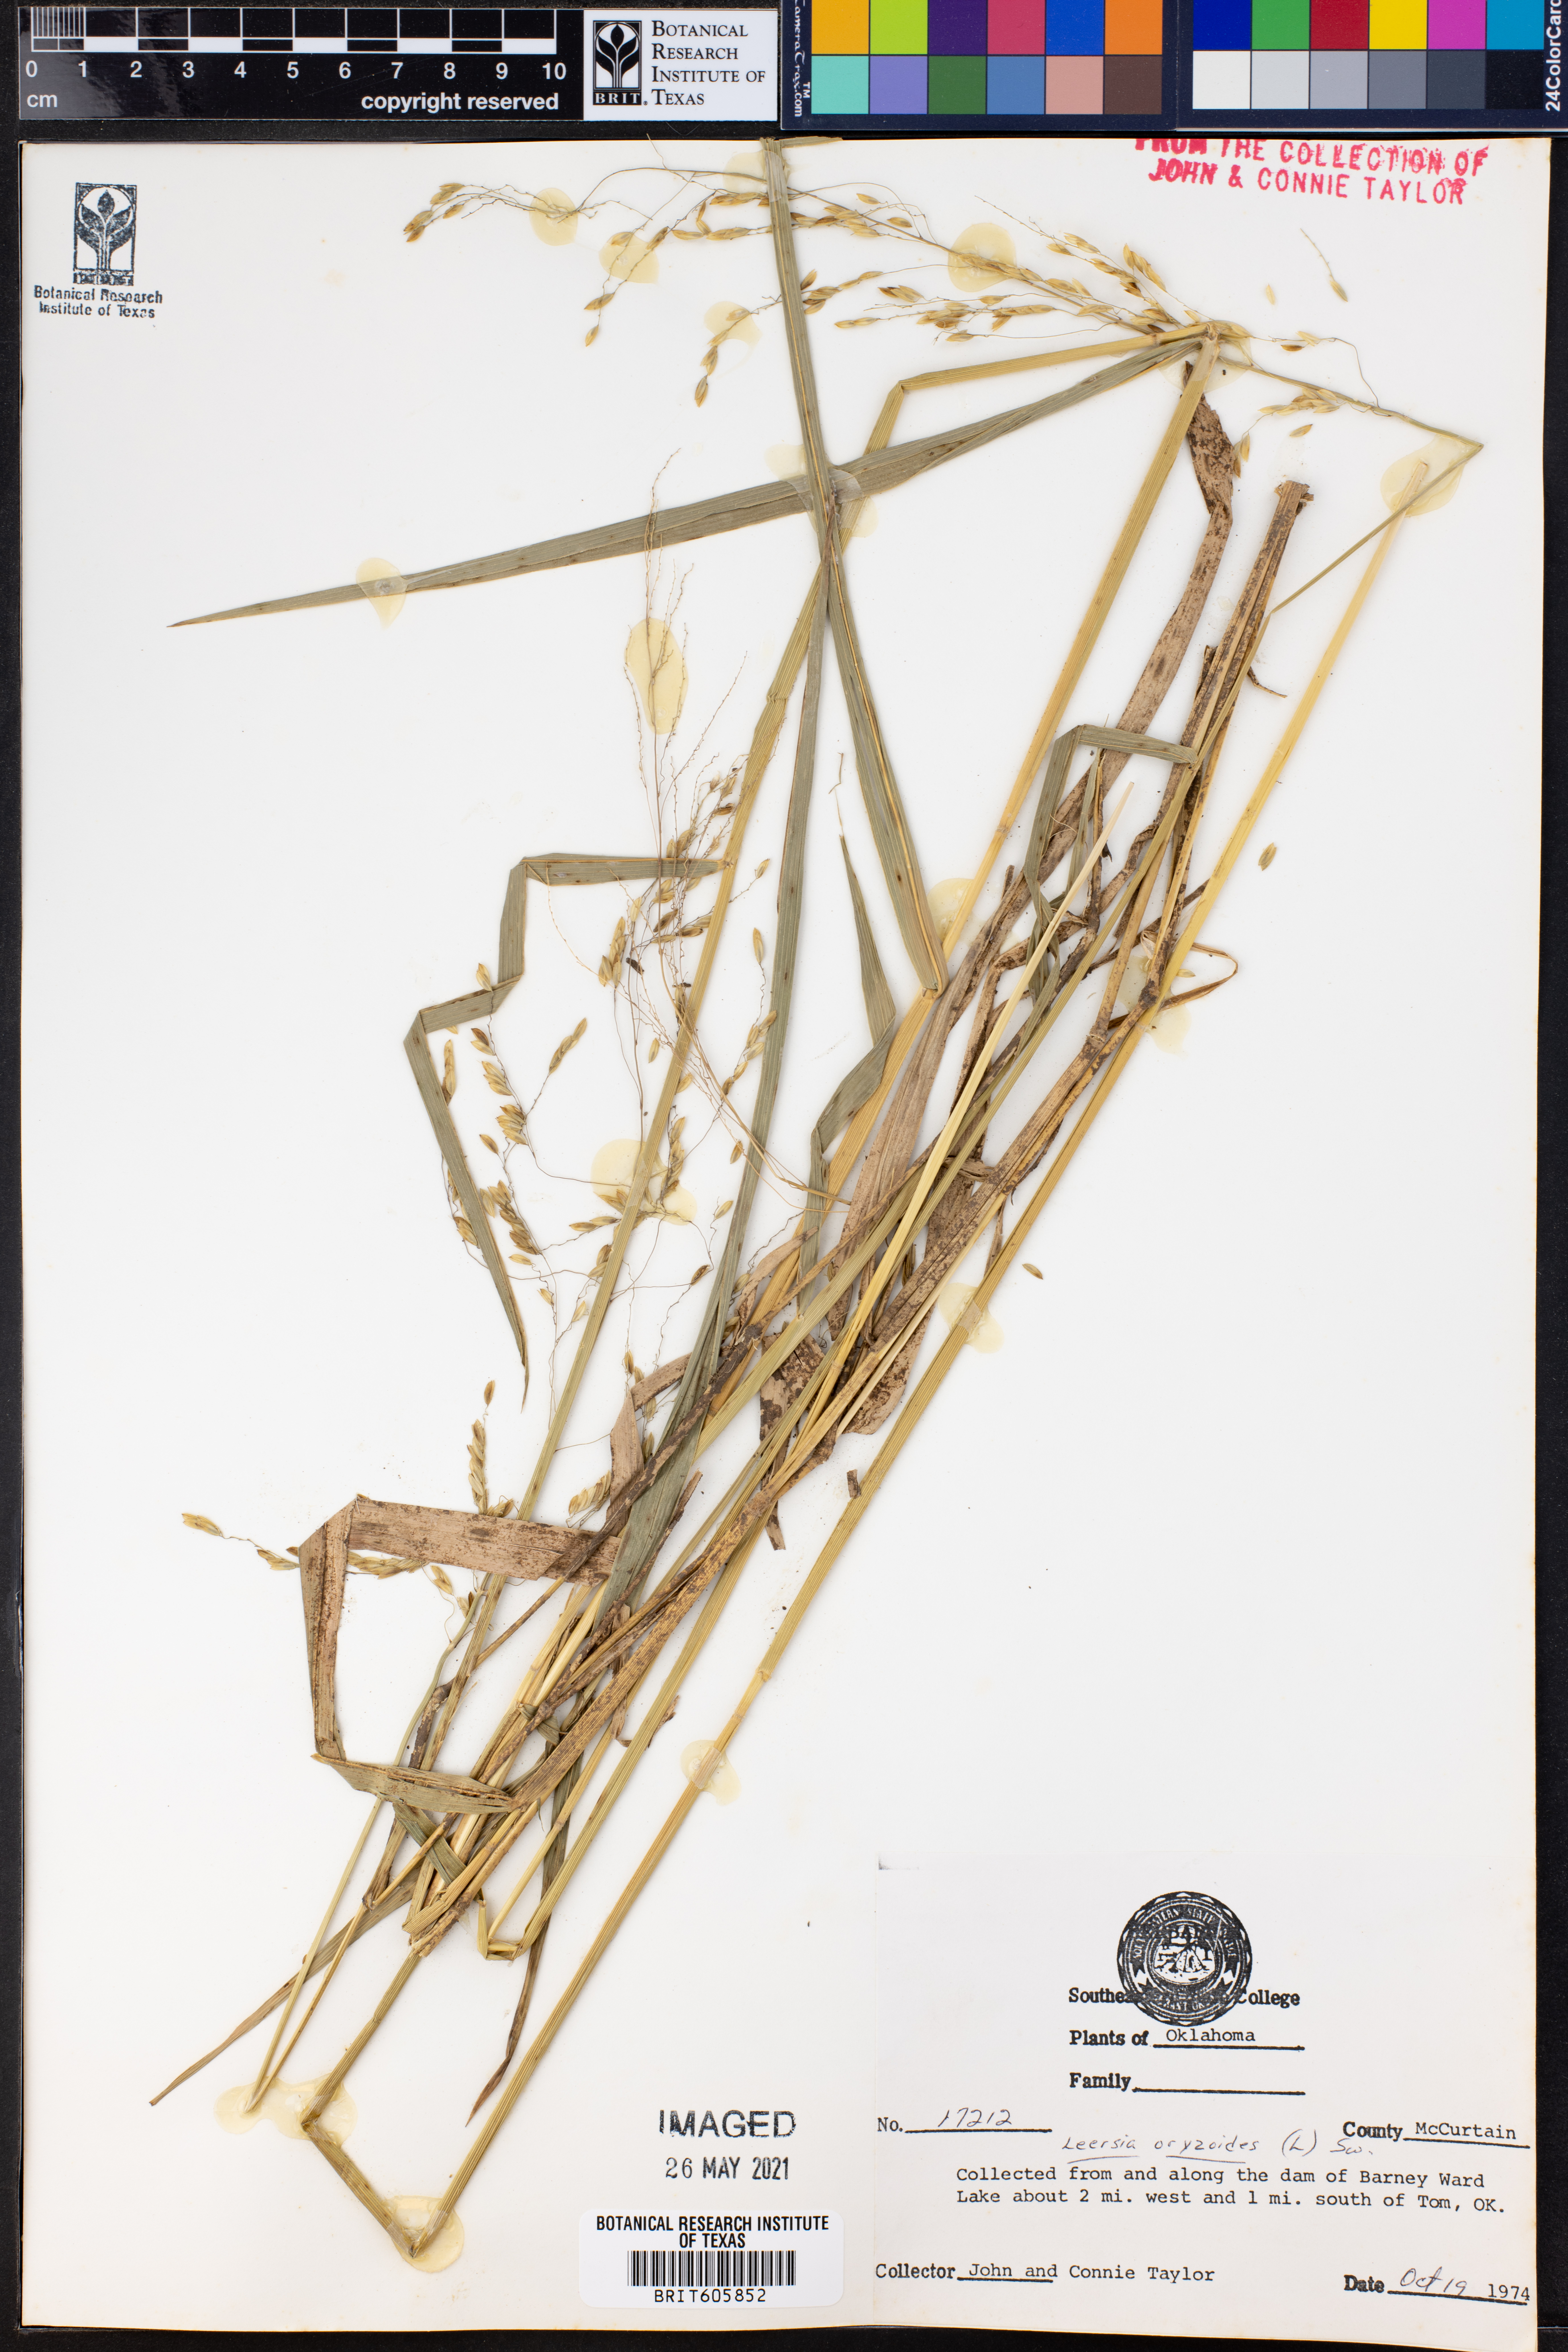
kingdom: Plantae
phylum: Tracheophyta
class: Liliopsida
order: Poales
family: Poaceae
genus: Leersia
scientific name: Leersia oryzoides
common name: Cut-grass
